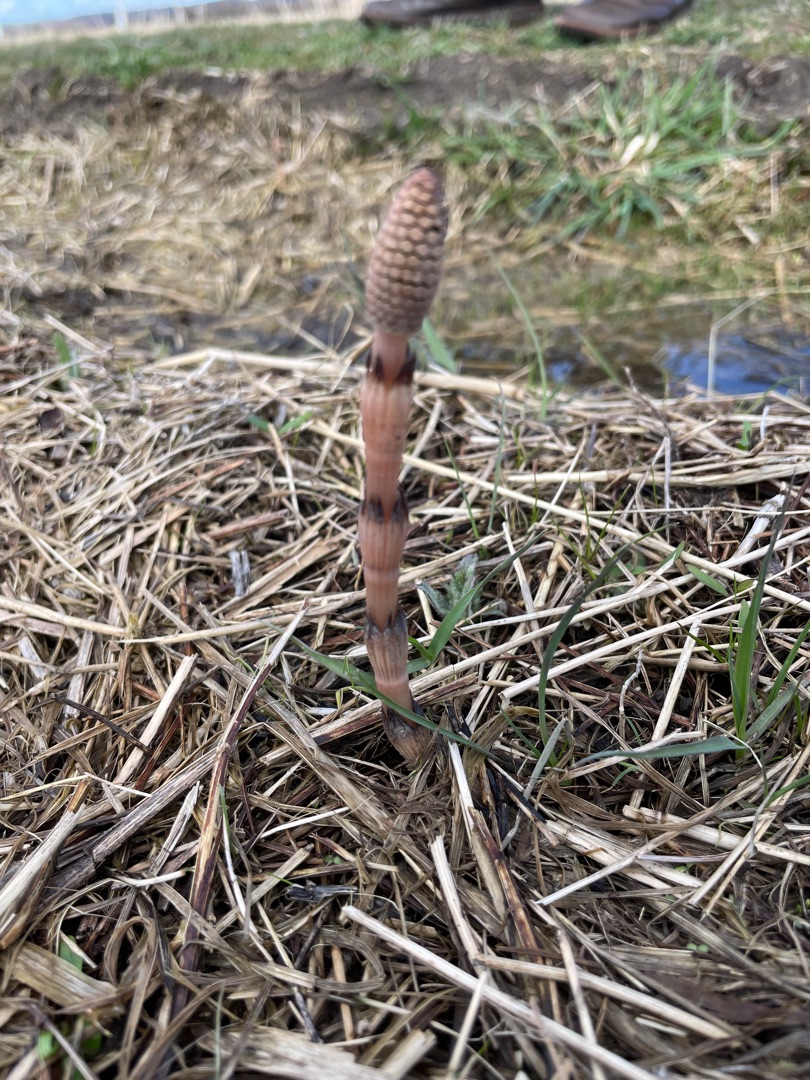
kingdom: Plantae
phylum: Tracheophyta
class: Polypodiopsida
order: Equisetales
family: Equisetaceae
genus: Equisetum
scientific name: Equisetum arvense
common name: Ager-padderok
